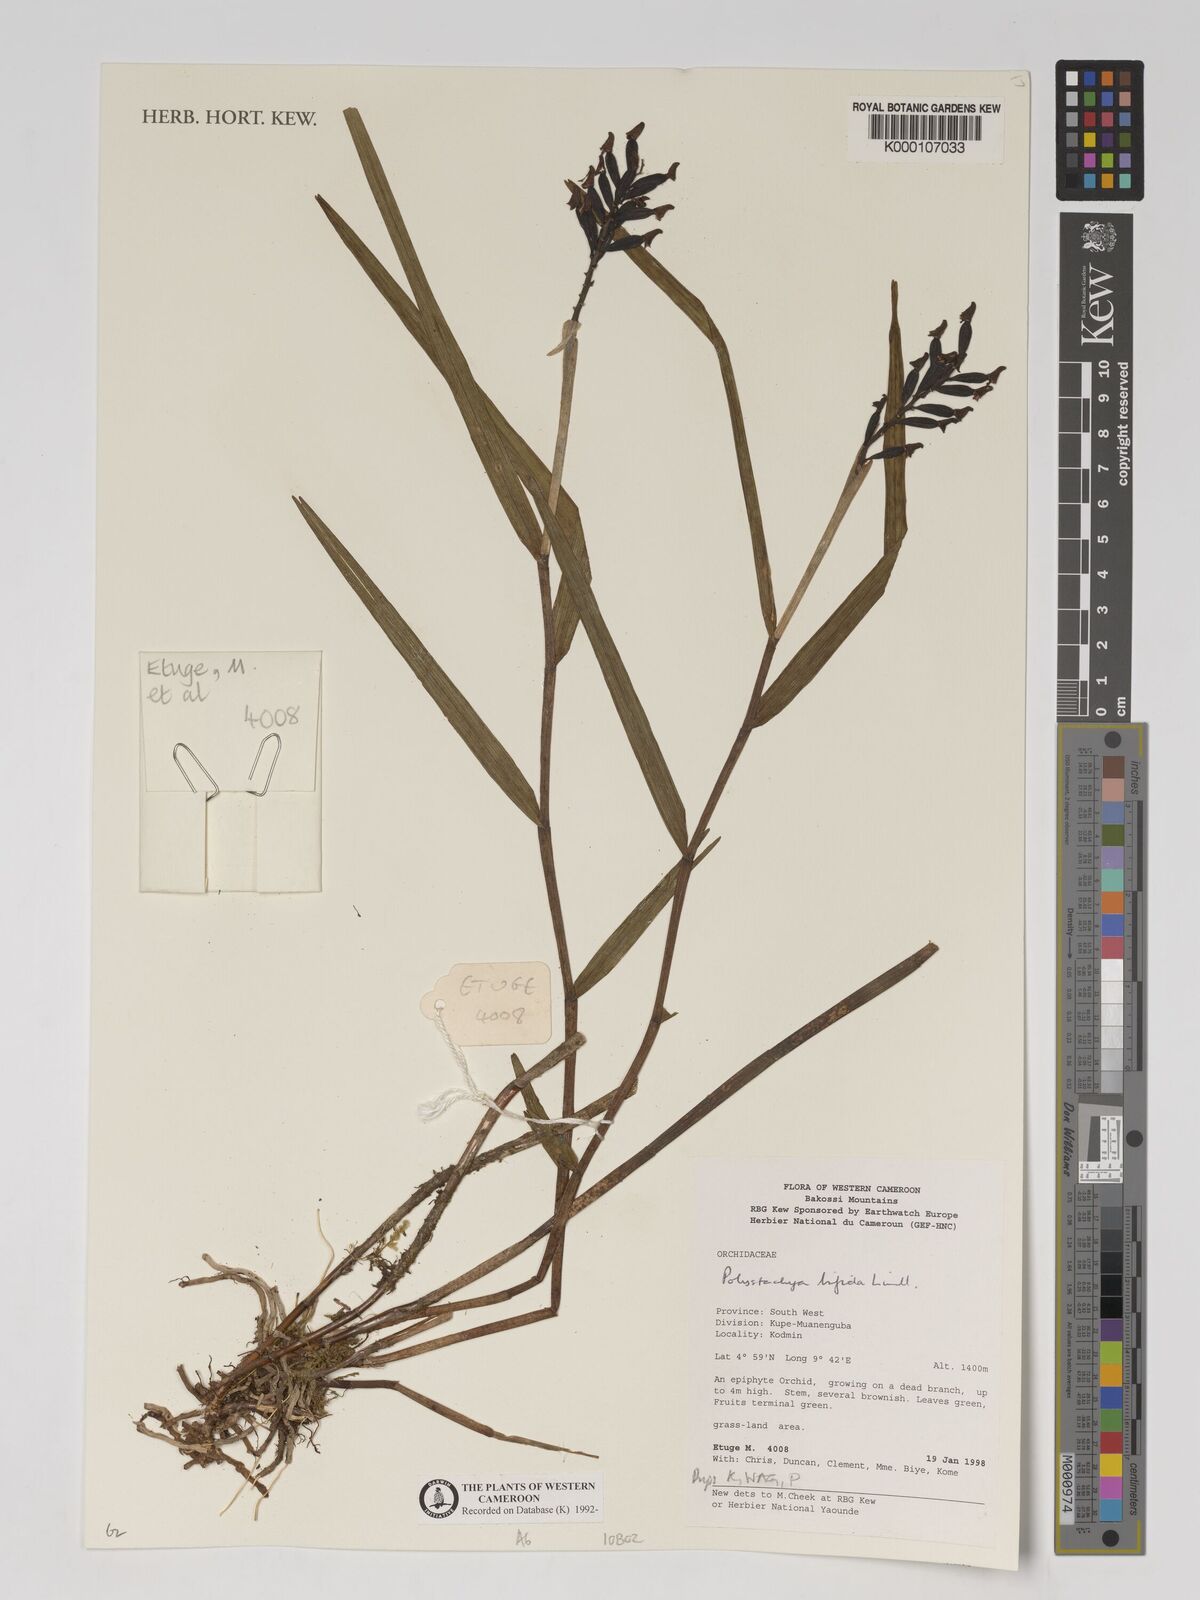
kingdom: Plantae
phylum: Tracheophyta
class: Liliopsida
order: Asparagales
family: Orchidaceae
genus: Polystachya
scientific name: Polystachya bifida
